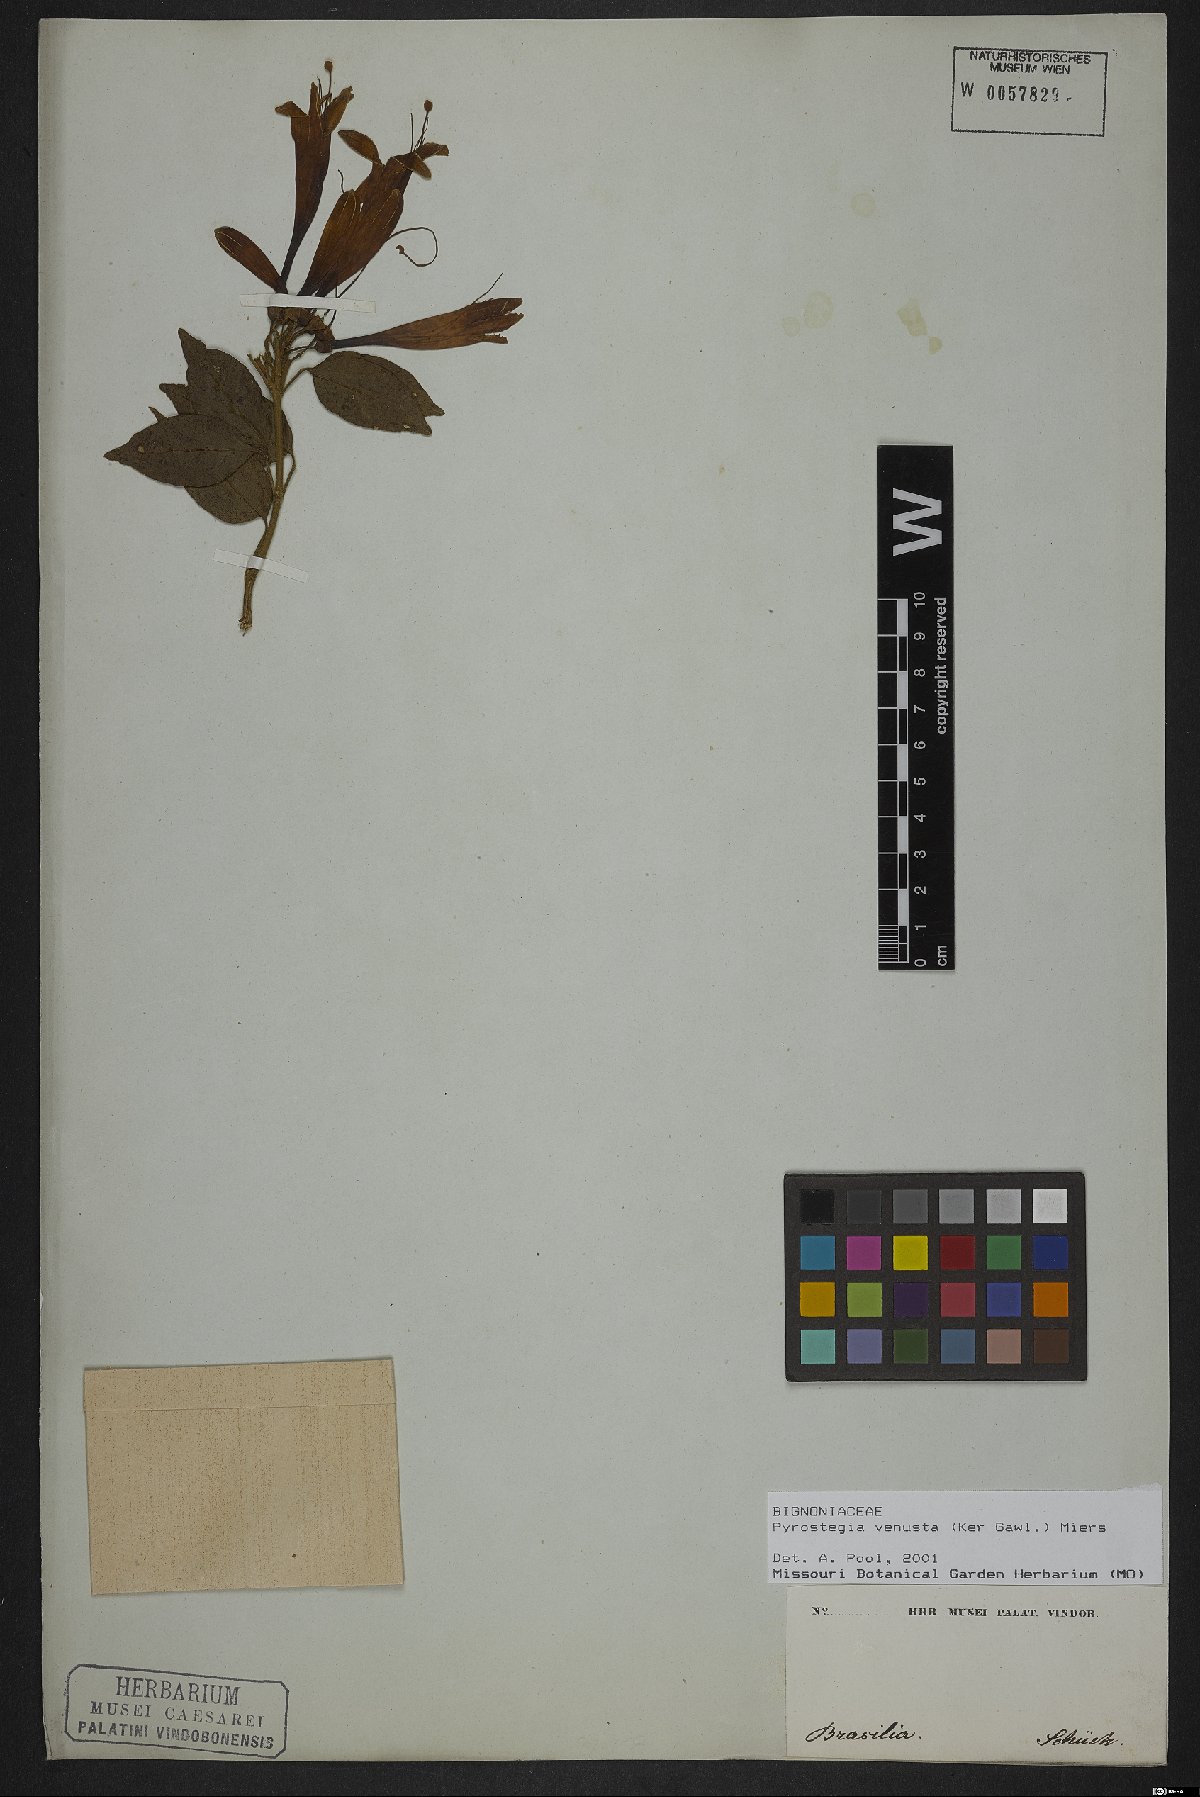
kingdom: Plantae
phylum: Tracheophyta
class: Magnoliopsida
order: Lamiales
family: Bignoniaceae
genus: Pyrostegia
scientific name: Pyrostegia venusta
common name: Flamevine
